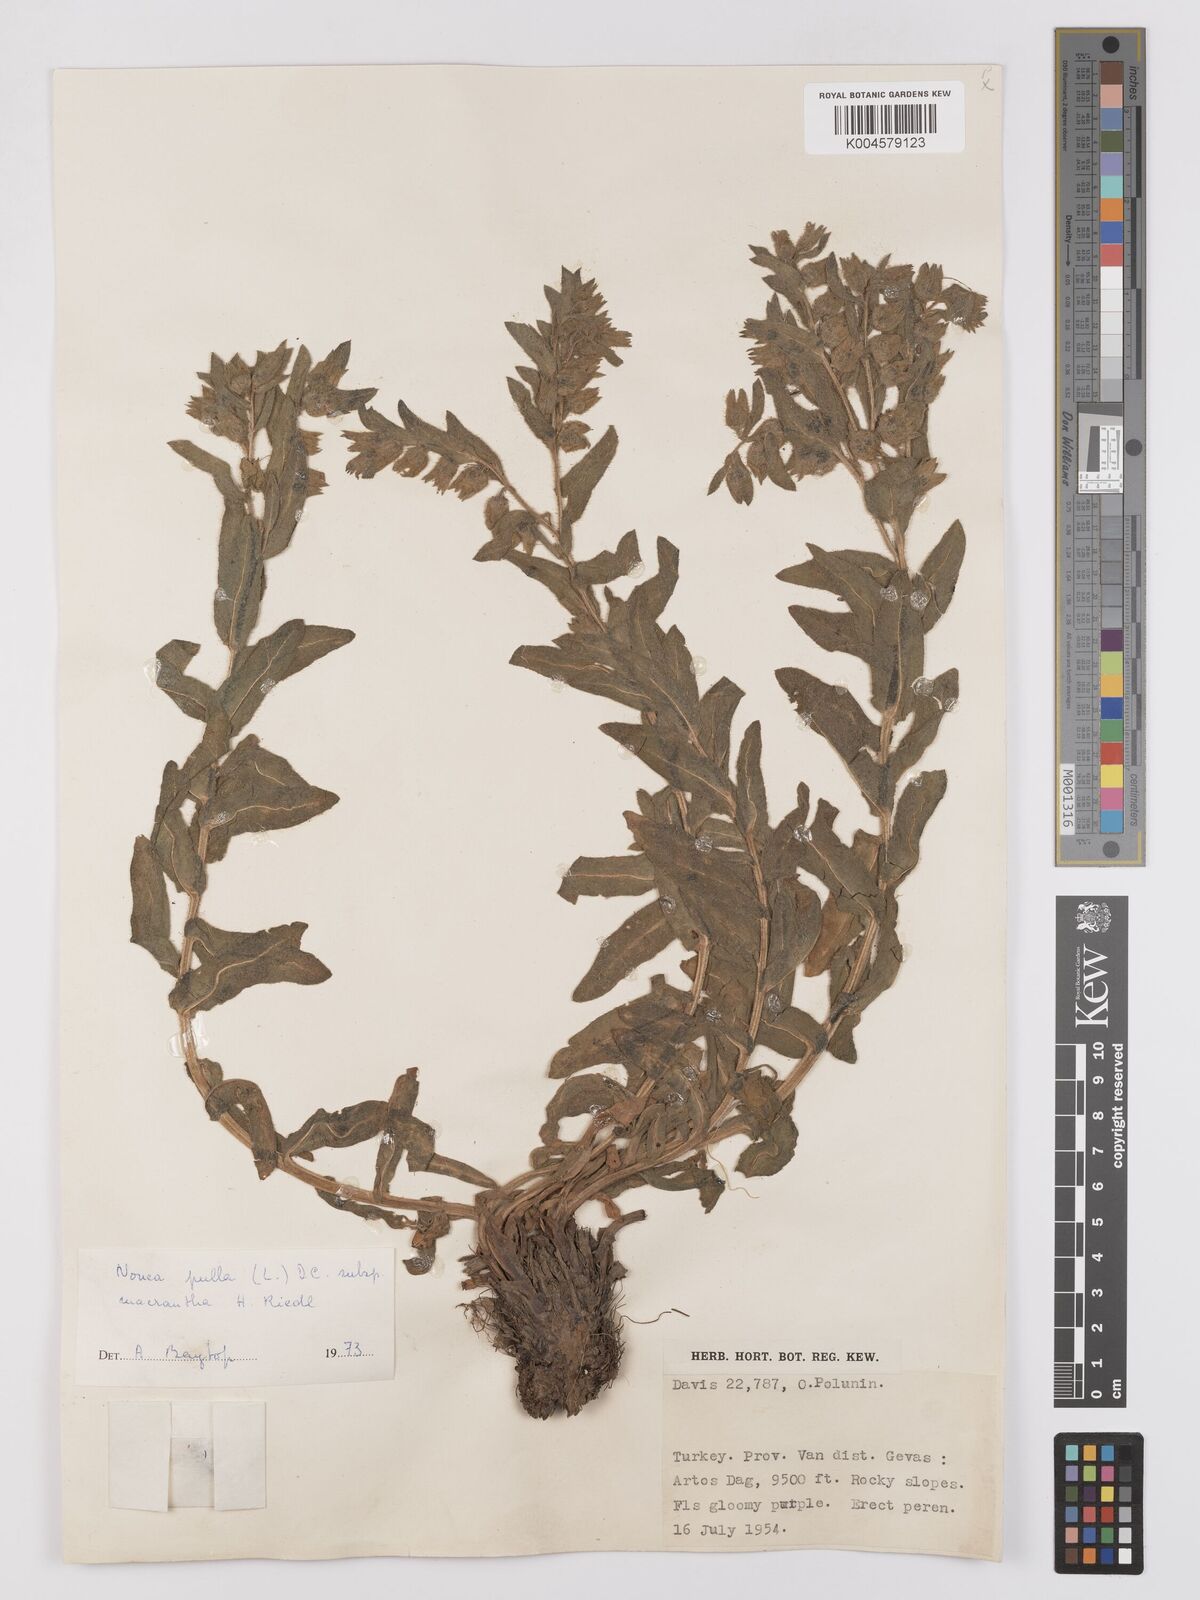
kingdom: Plantae
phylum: Tracheophyta
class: Magnoliopsida
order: Boraginales
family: Boraginaceae
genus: Nonea
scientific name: Nonea pulla
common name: Brown nonea
